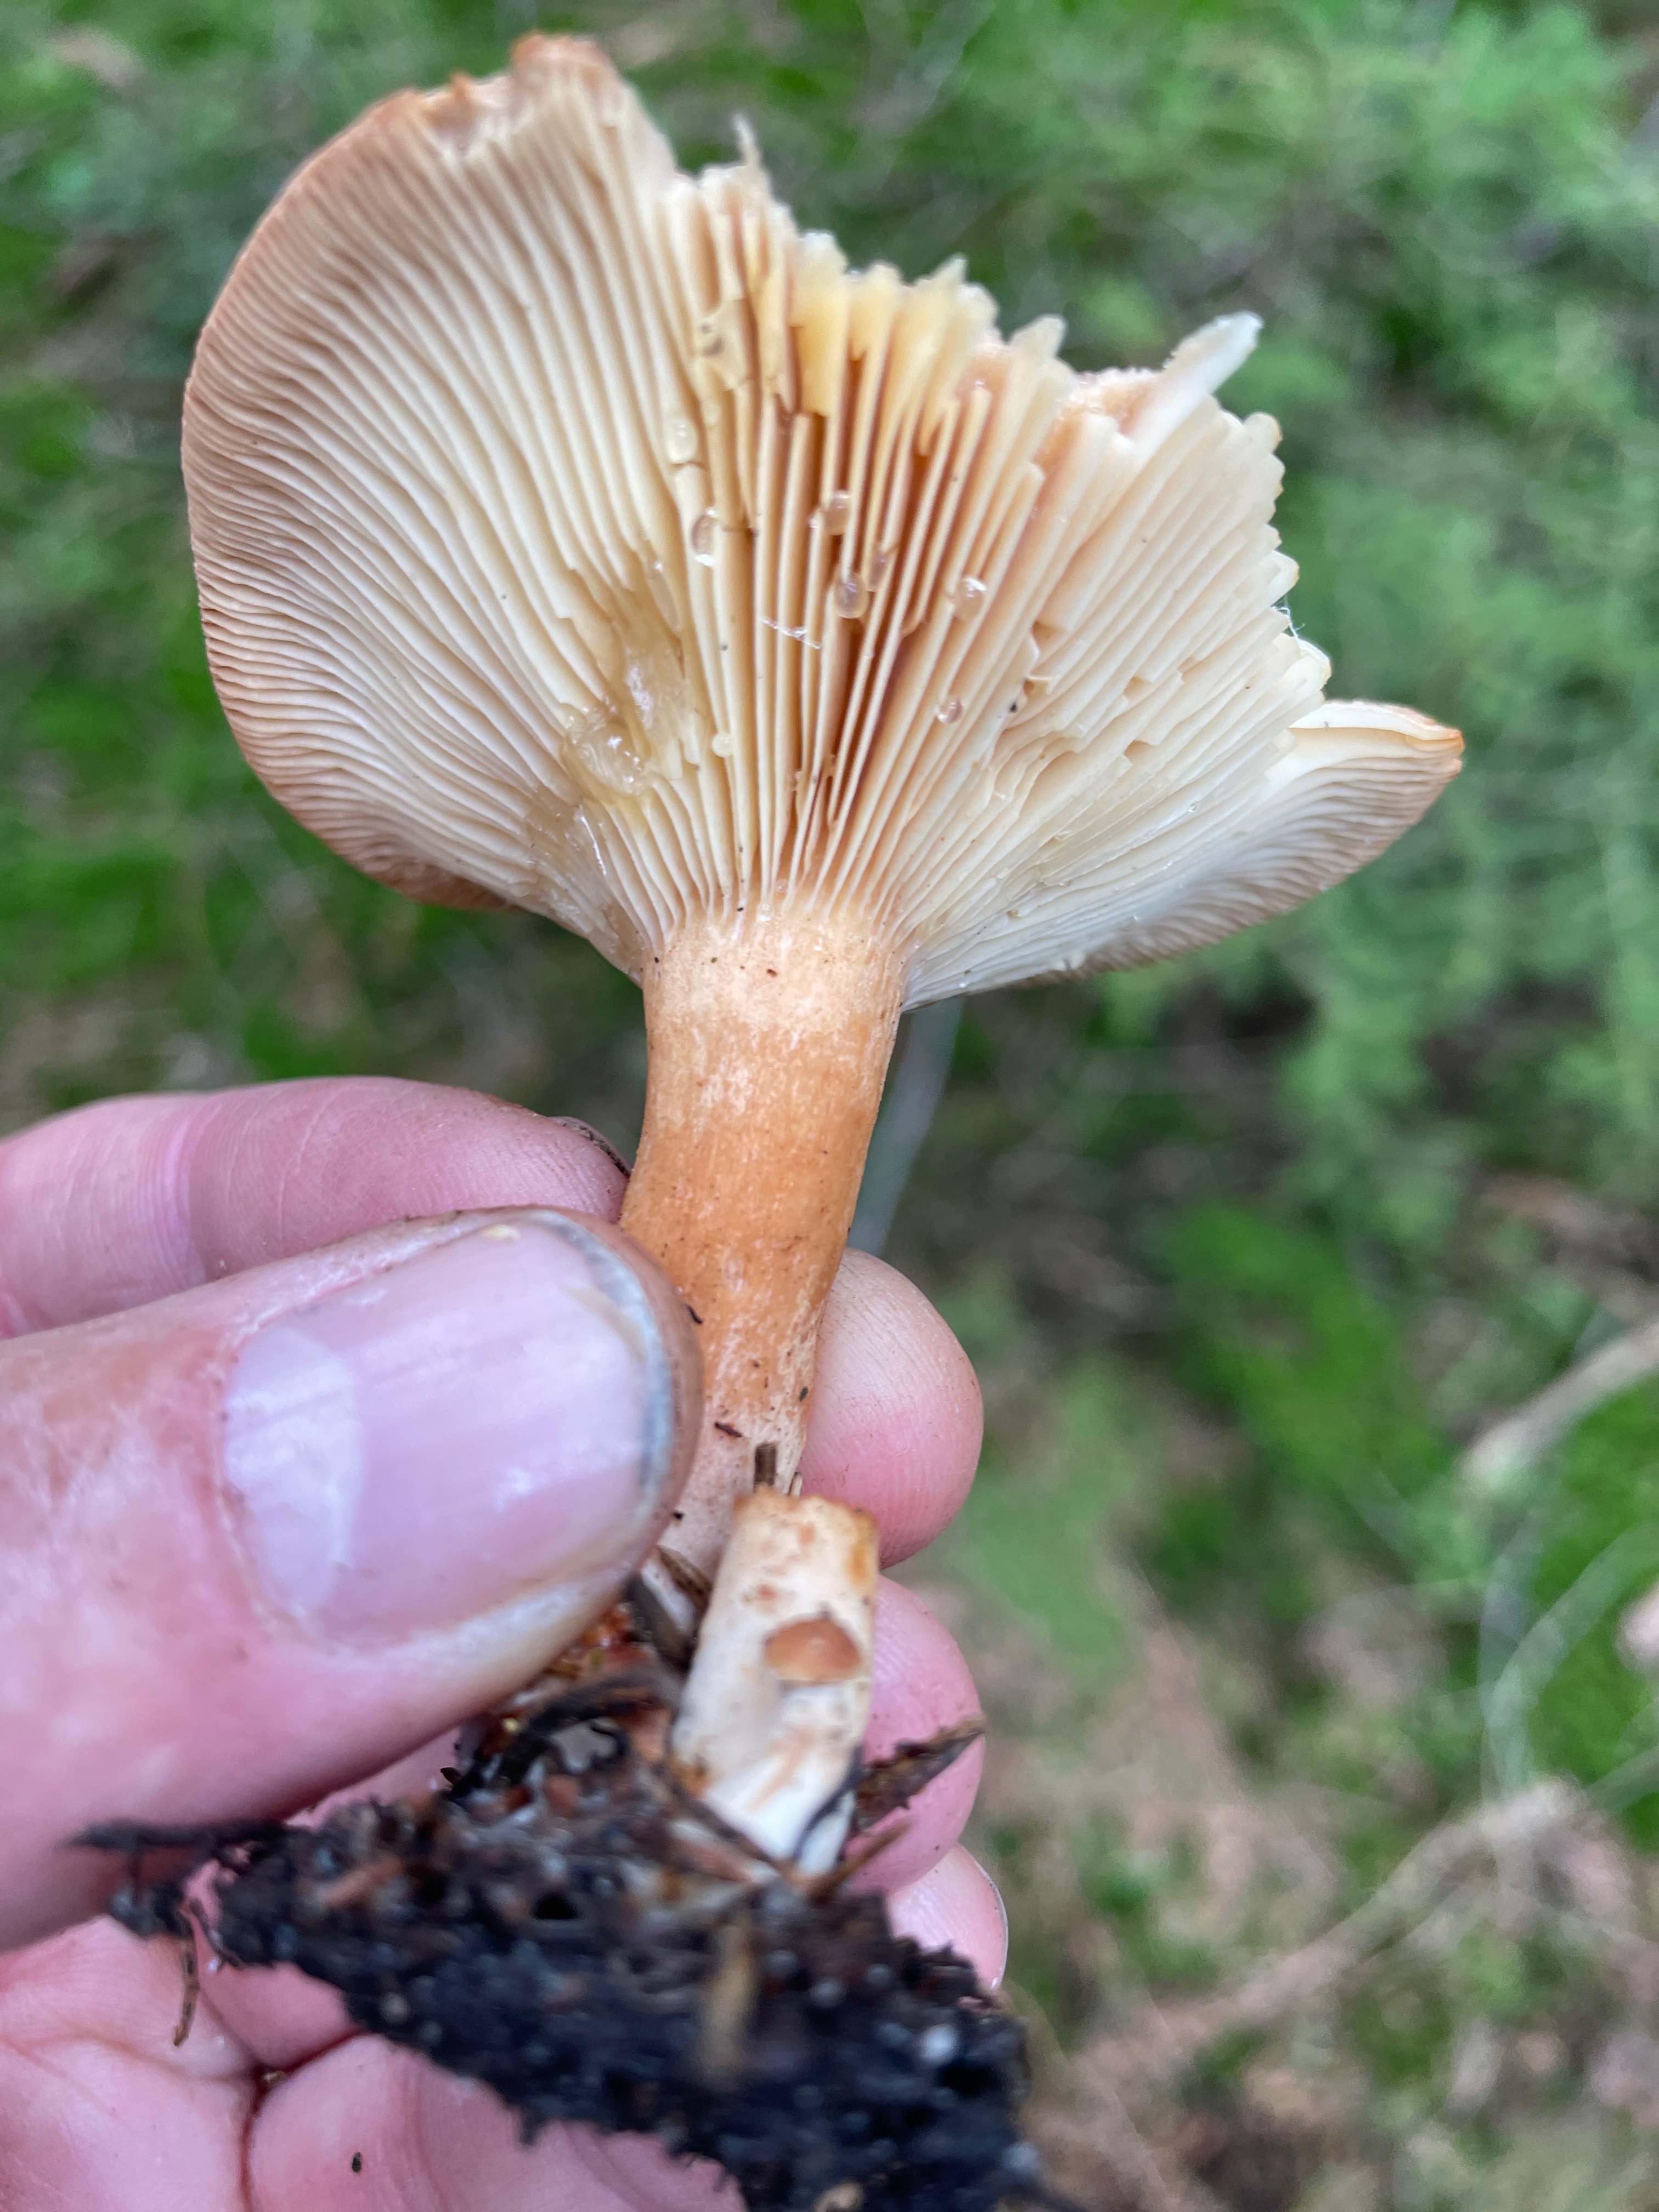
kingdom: Fungi
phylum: Basidiomycota
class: Agaricomycetes
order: Russulales
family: Russulaceae
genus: Lactarius
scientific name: Lactarius helvus
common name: mose-mælkehat
